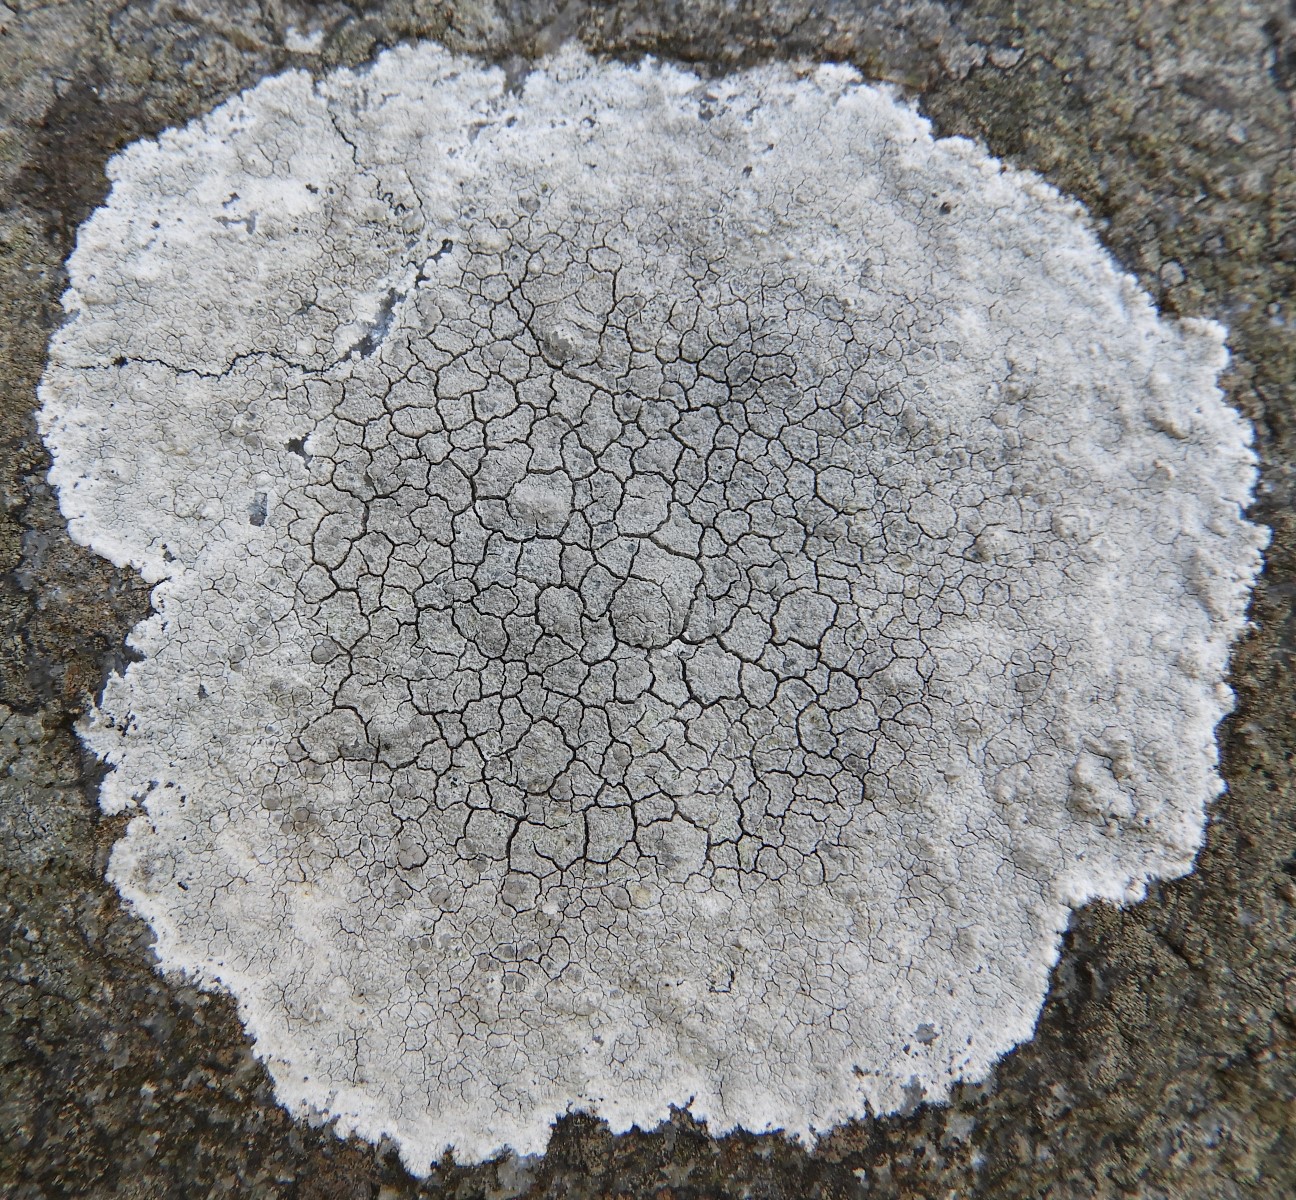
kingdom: Fungi
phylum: Ascomycota
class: Lecanoromycetes
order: Lecanorales
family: Lecanoraceae
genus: Glaucomaria
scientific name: Glaucomaria rupicola
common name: stengærde-kantskivelav
